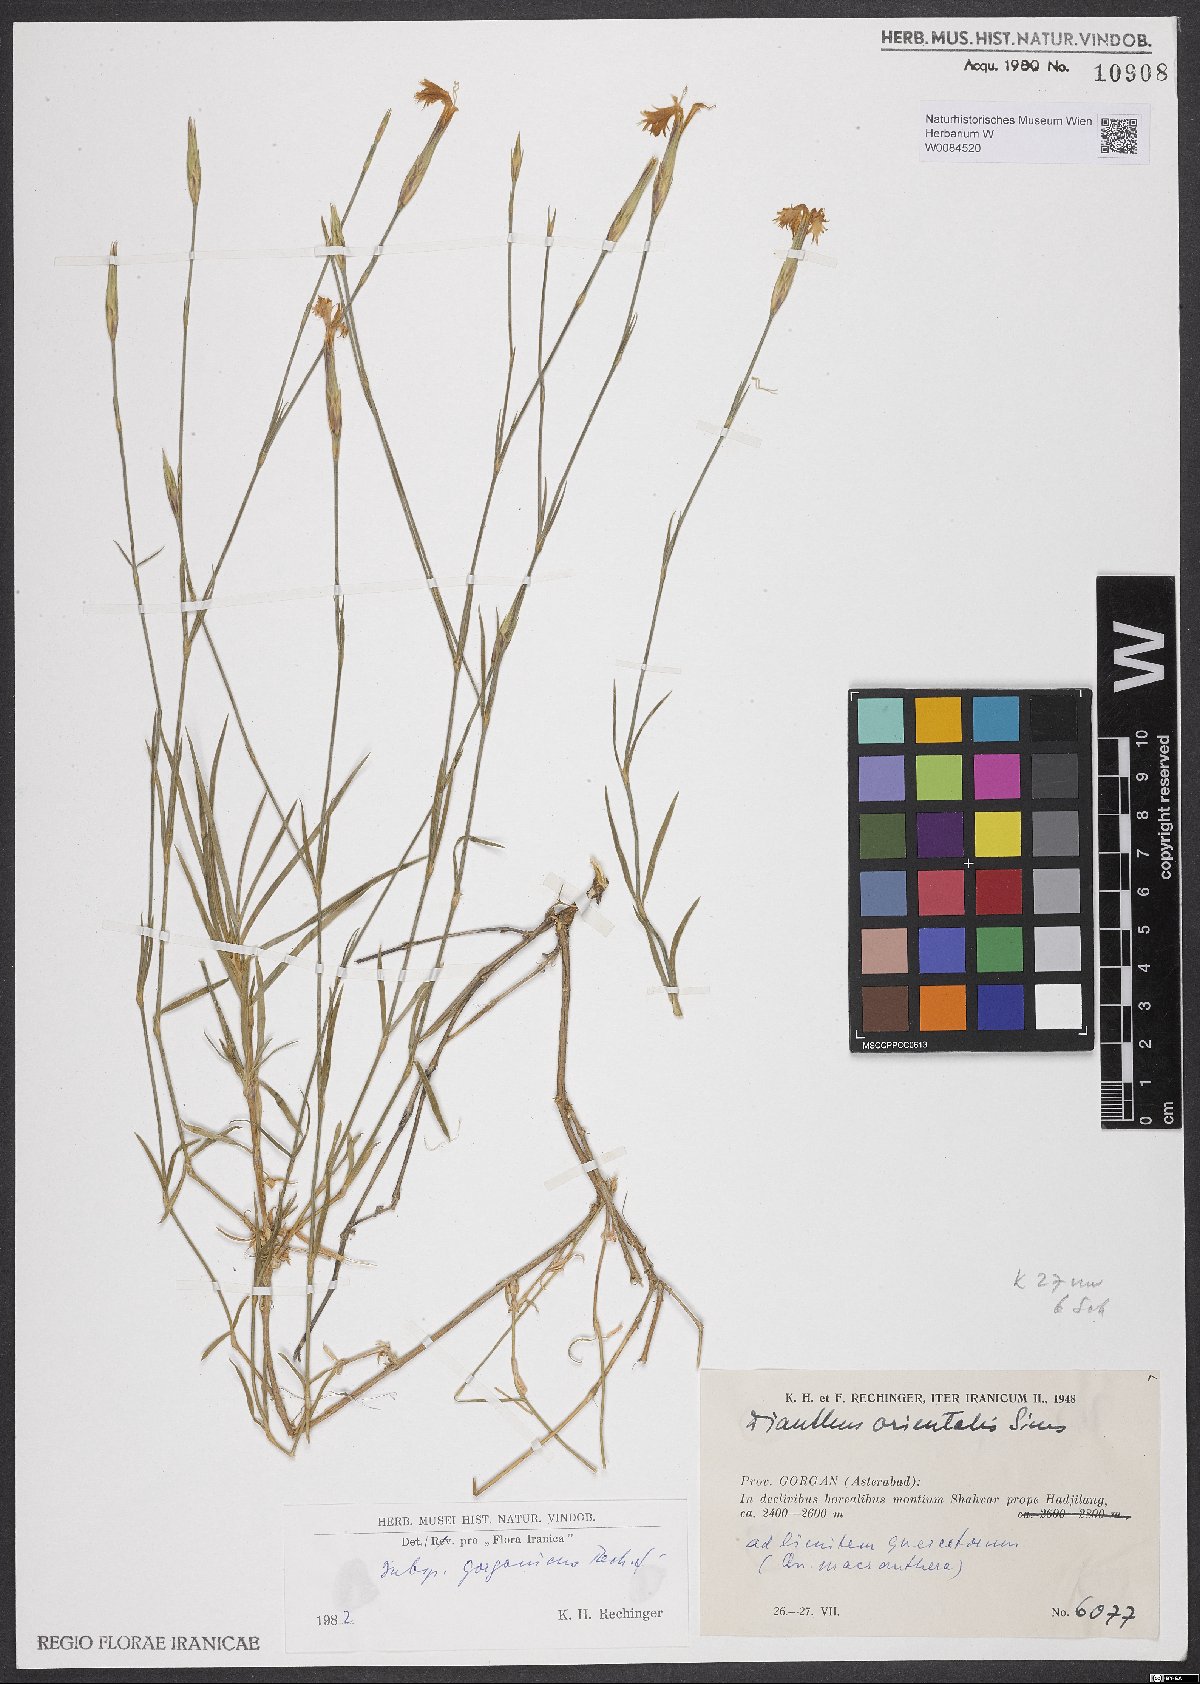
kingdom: Plantae
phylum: Tracheophyta
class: Magnoliopsida
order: Caryophyllales
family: Caryophyllaceae
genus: Dianthus
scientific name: Dianthus orientalis
